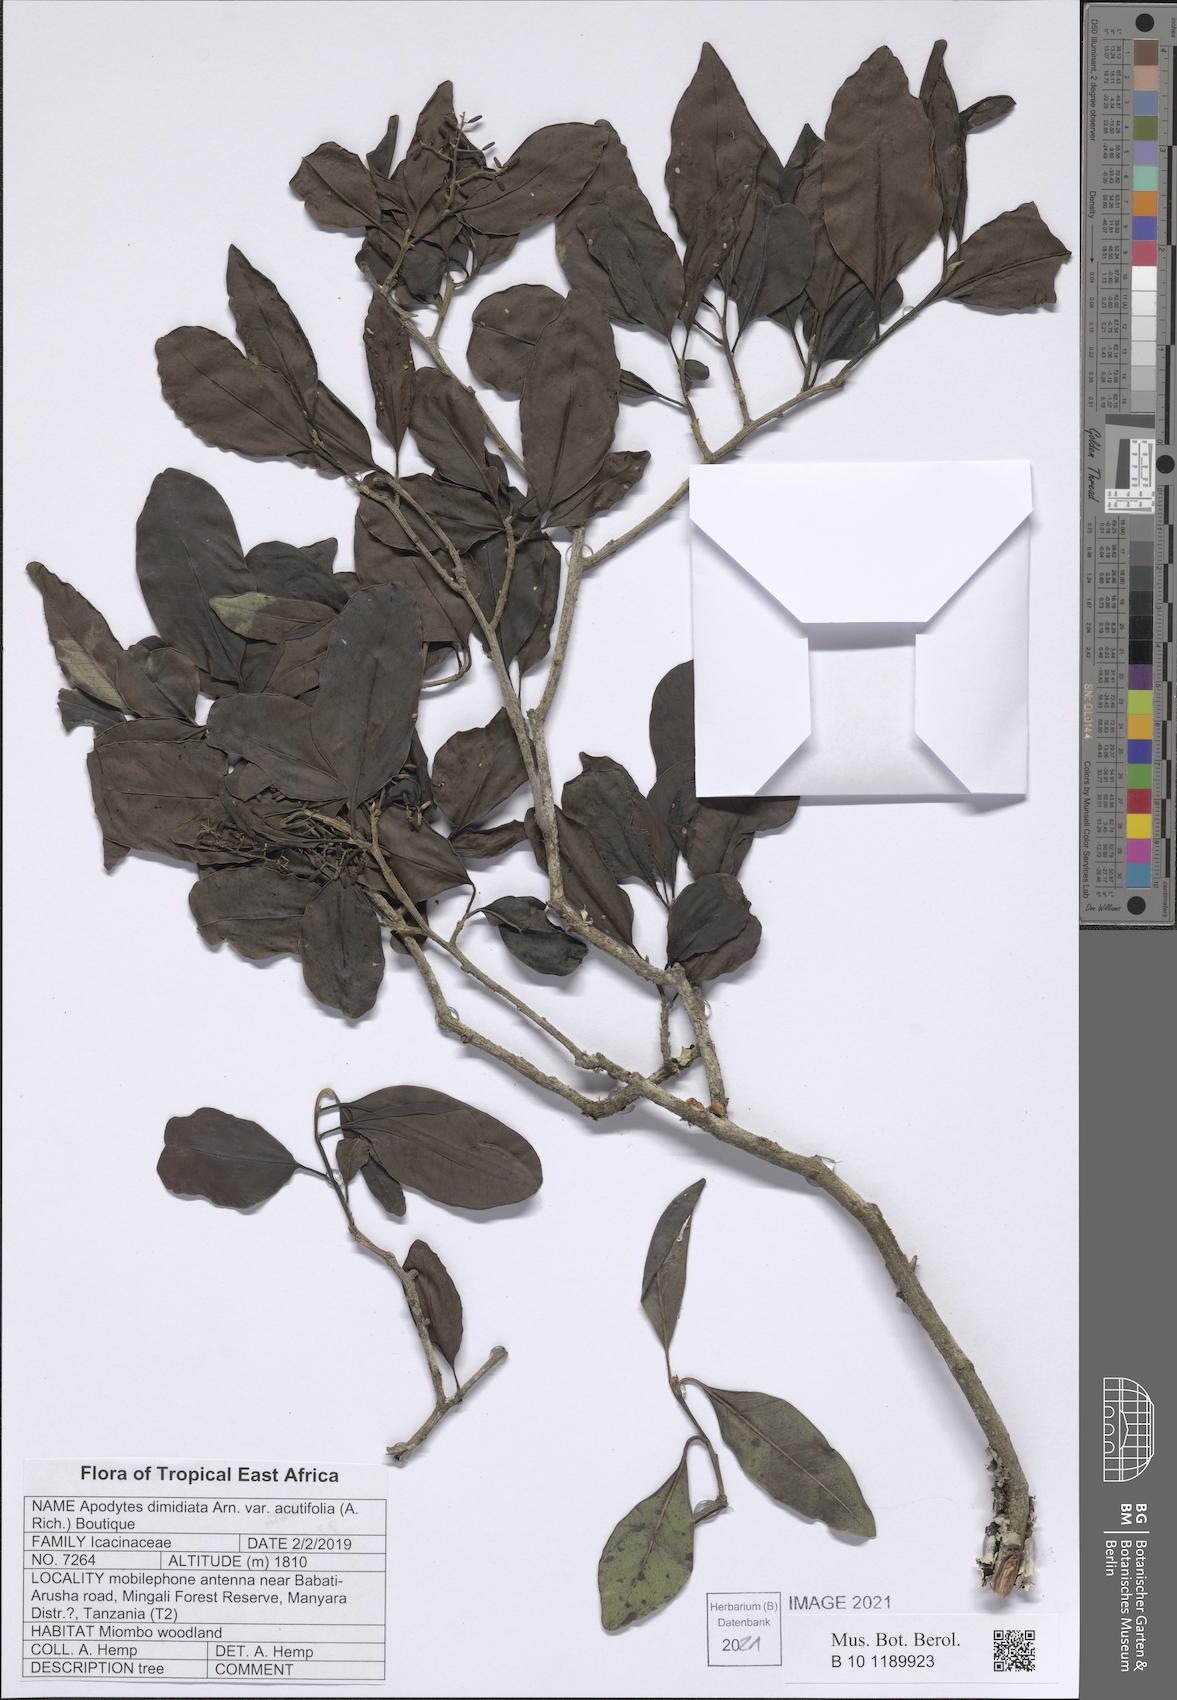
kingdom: Plantae
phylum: Tracheophyta
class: Magnoliopsida
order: Metteniusales
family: Metteniusaceae
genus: Apodytes
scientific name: Apodytes dimidiata
